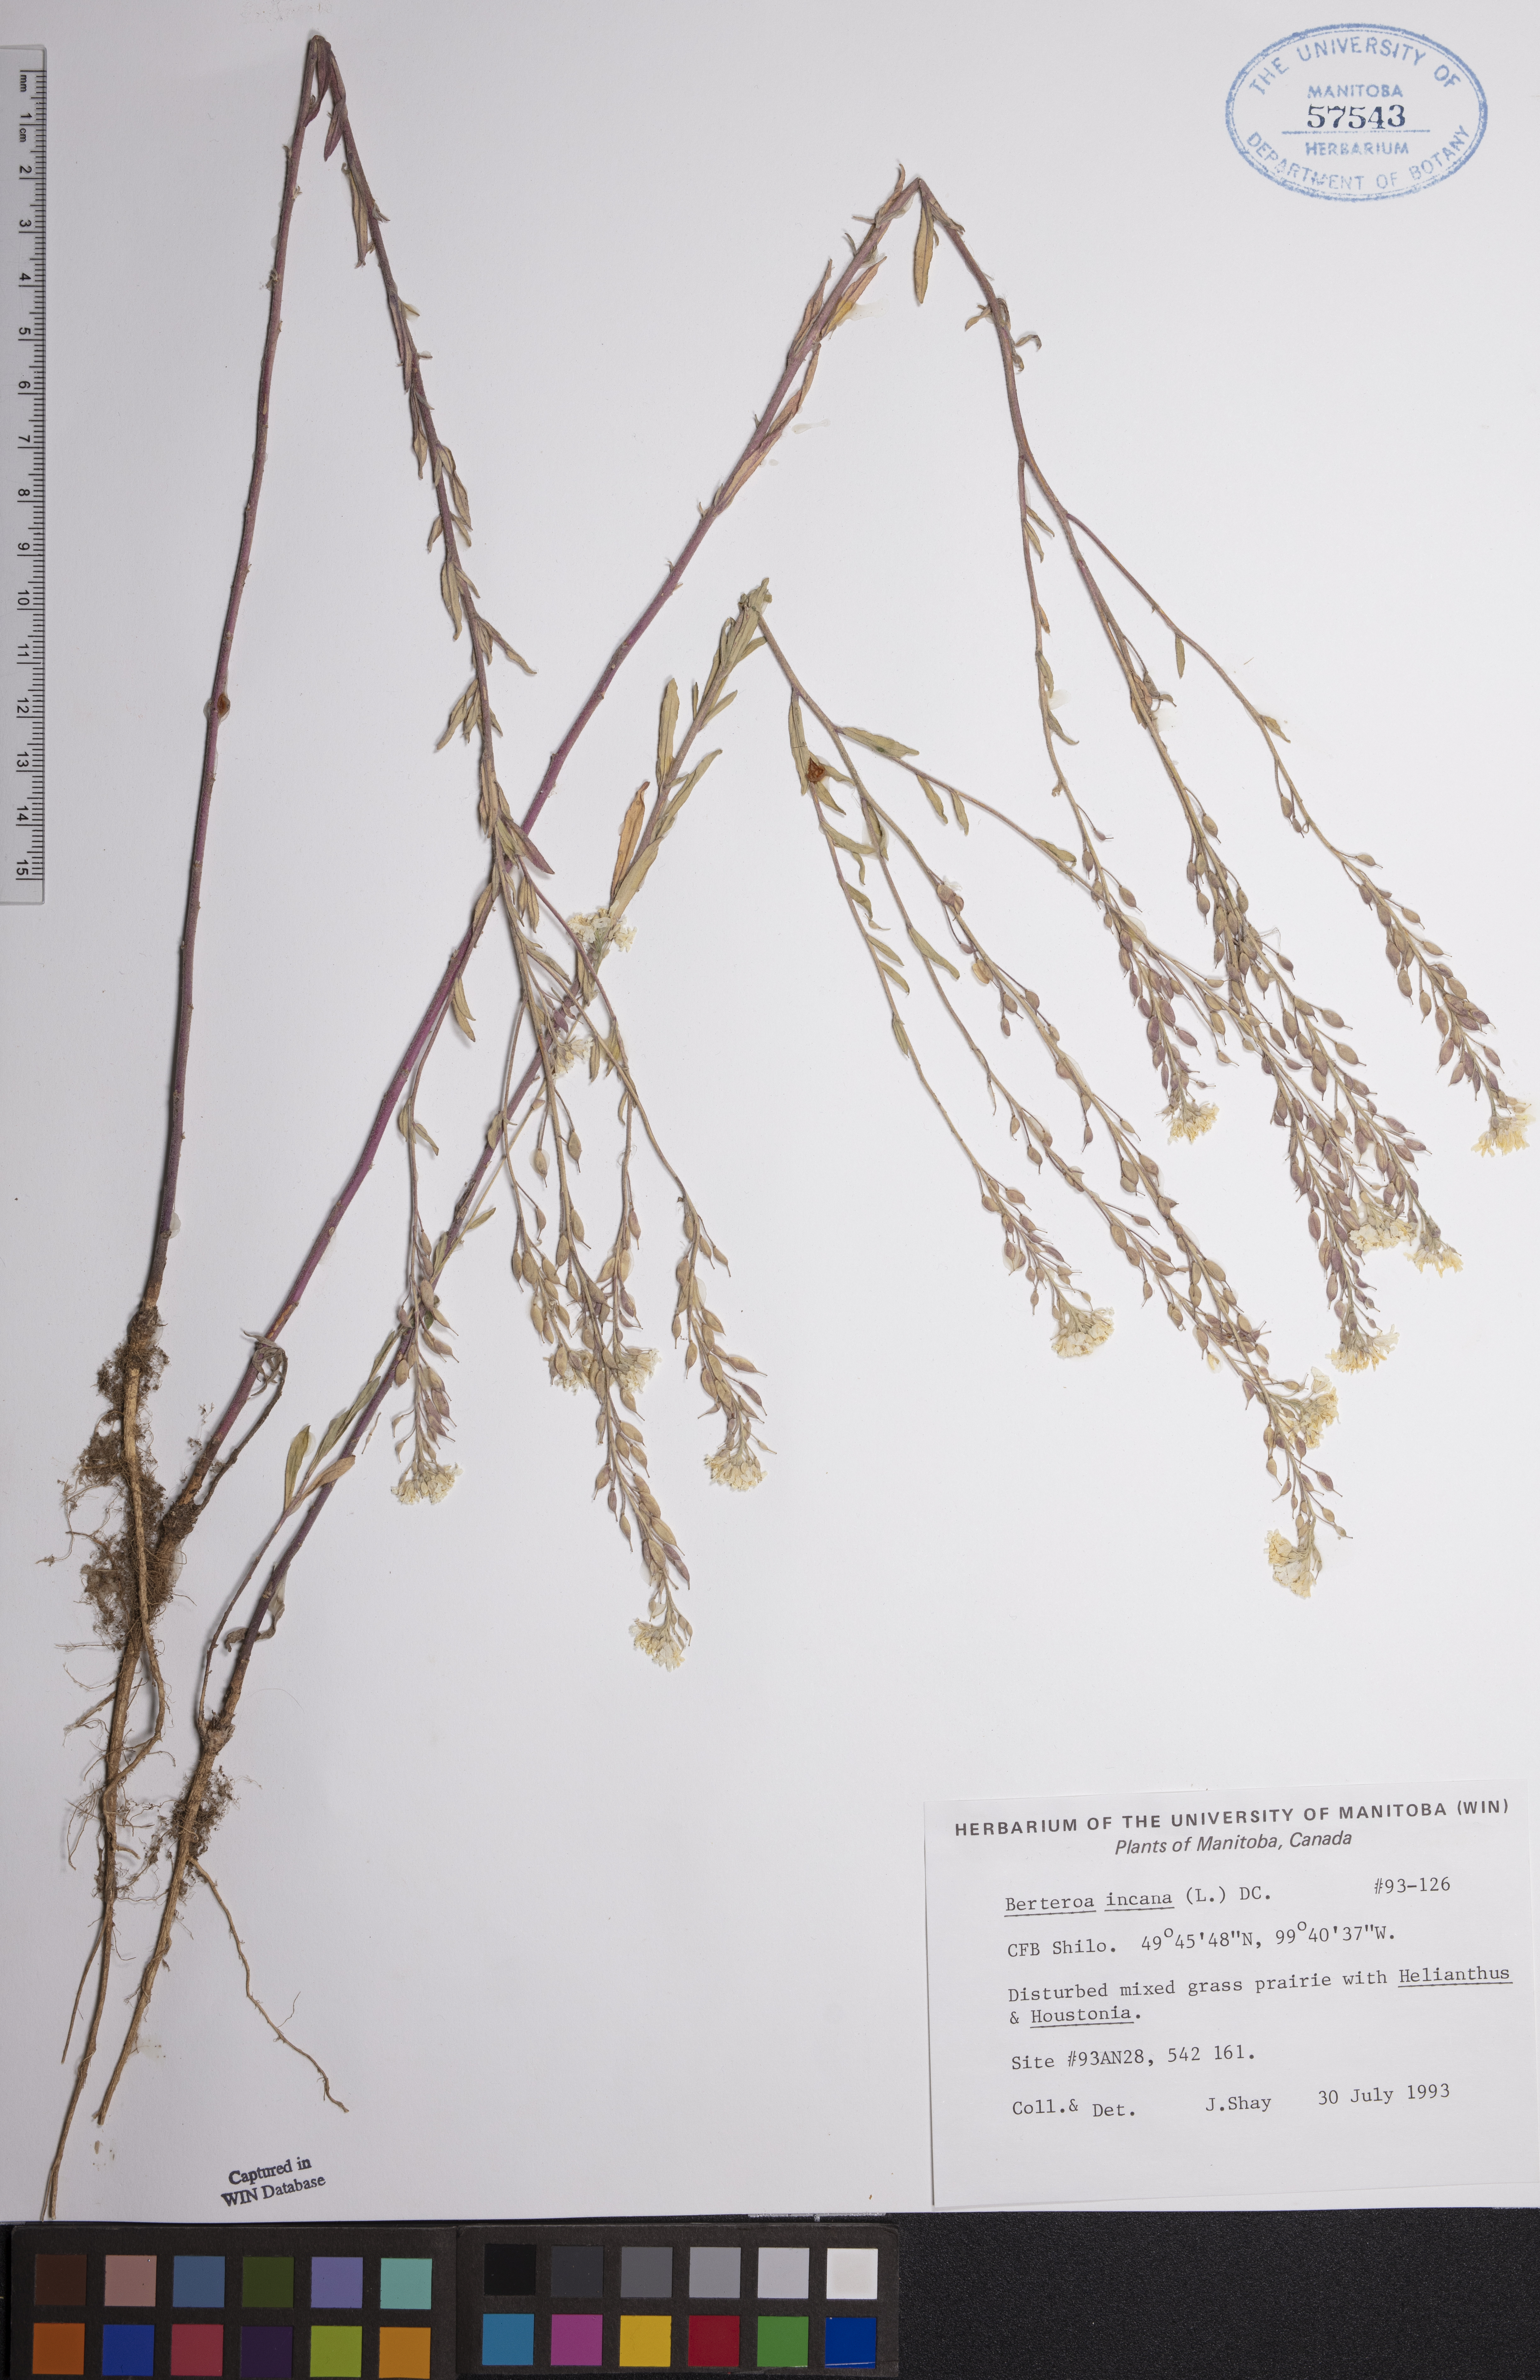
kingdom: Plantae
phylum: Tracheophyta
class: Magnoliopsida
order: Brassicales
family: Brassicaceae
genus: Berteroa
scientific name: Berteroa incana
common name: Hoary alison
